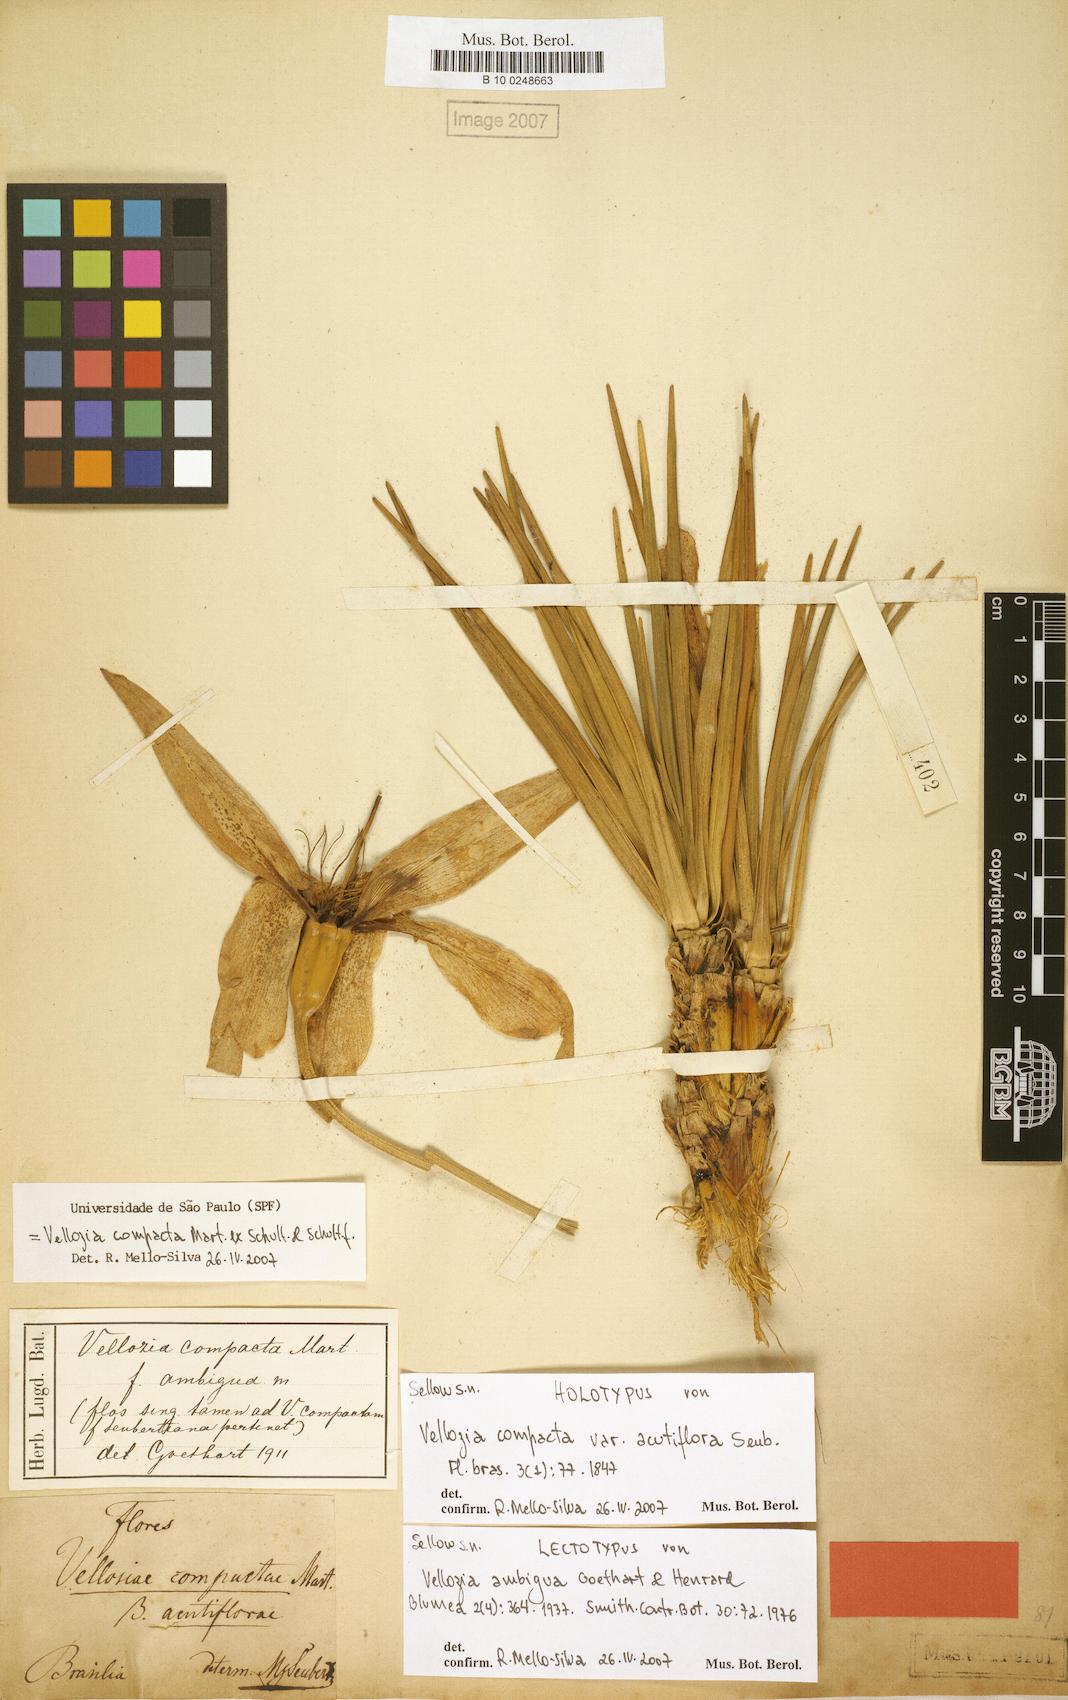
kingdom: Plantae
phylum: Tracheophyta
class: Liliopsida
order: Pandanales
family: Velloziaceae
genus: Vellozia
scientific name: Vellozia compacta
